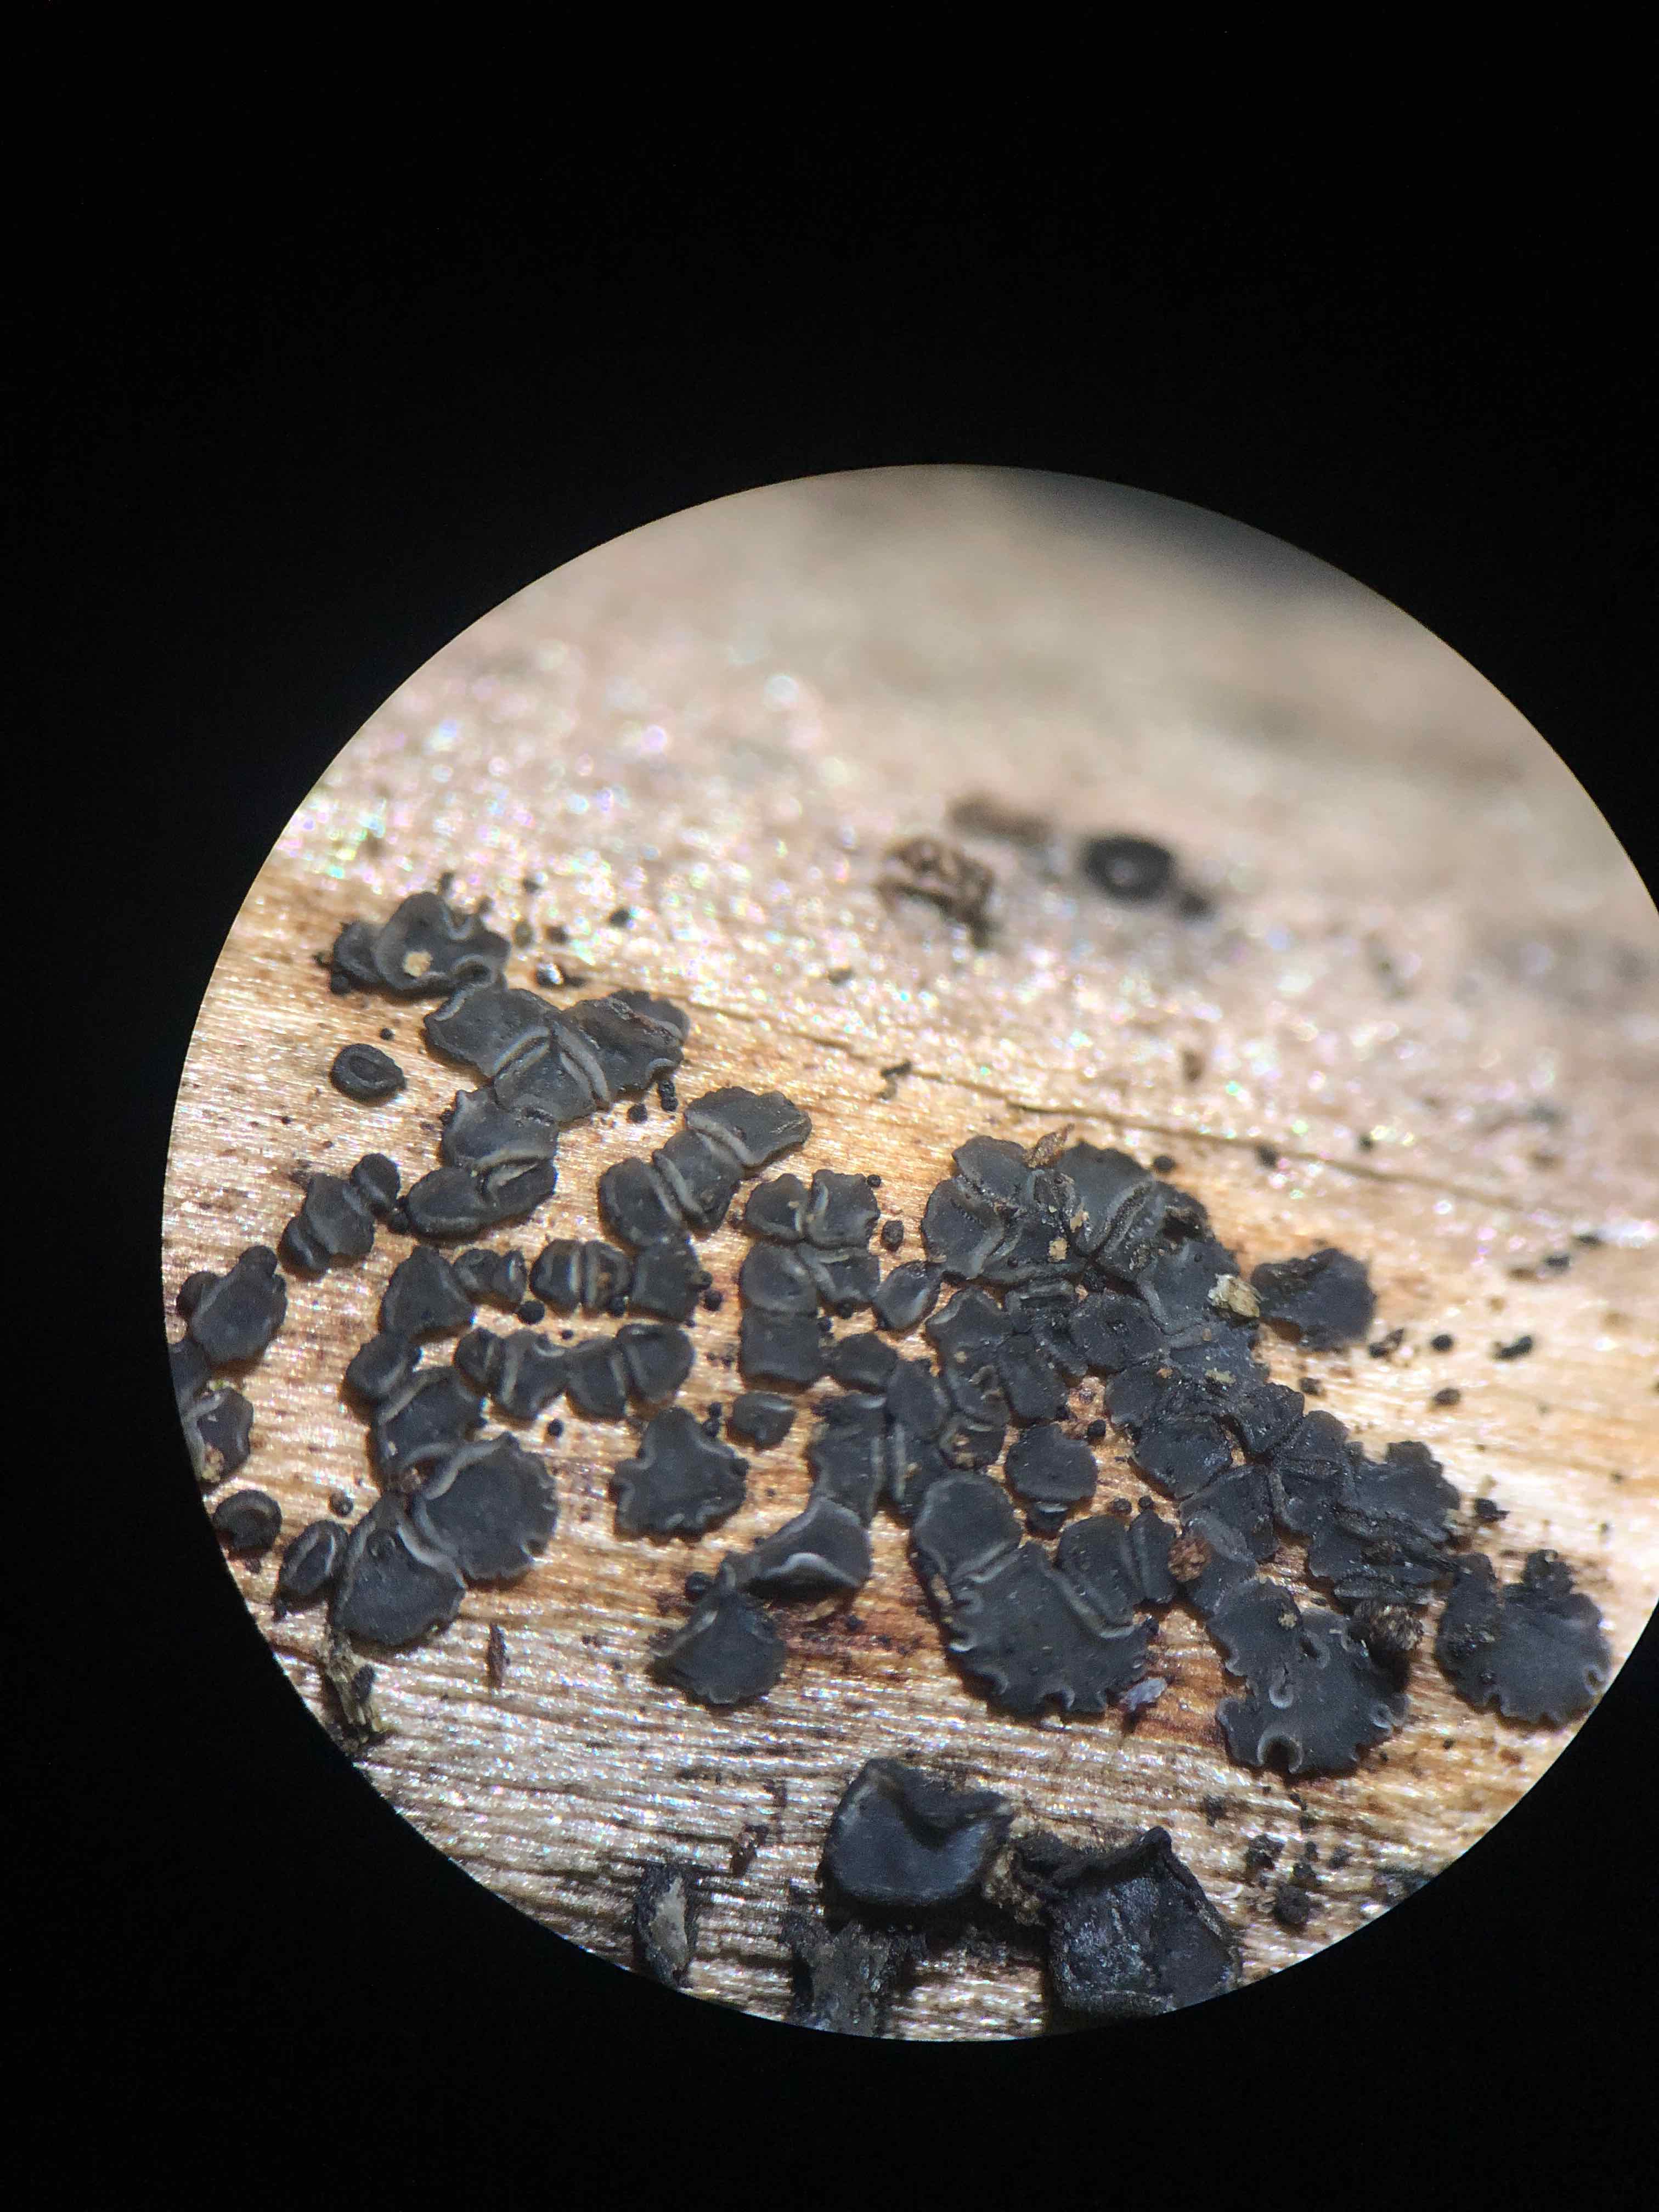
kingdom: Fungi
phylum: Ascomycota
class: Leotiomycetes
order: Helotiales
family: Mollisiaceae
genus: Mollisia
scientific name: Mollisia
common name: gråskive
